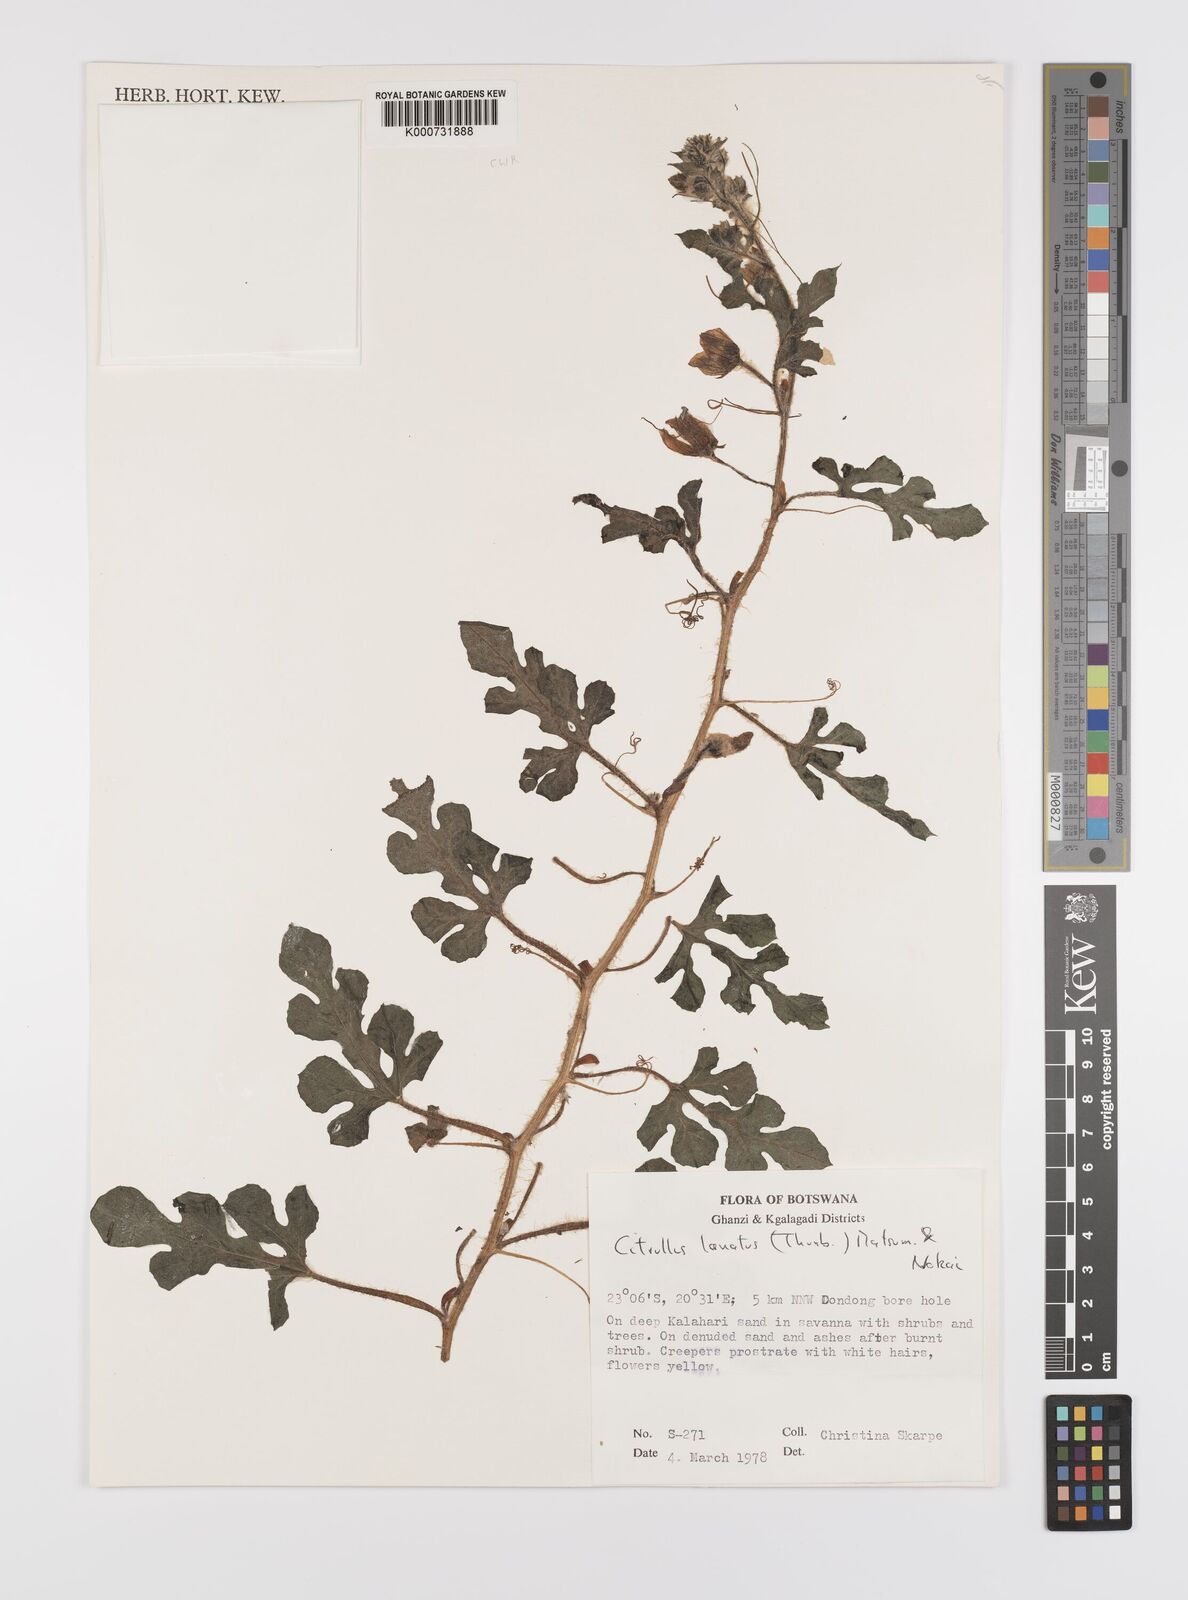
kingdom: Plantae
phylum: Tracheophyta
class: Magnoliopsida
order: Cucurbitales
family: Cucurbitaceae
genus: Citrullus
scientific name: Citrullus lanatus
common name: Watermelon
